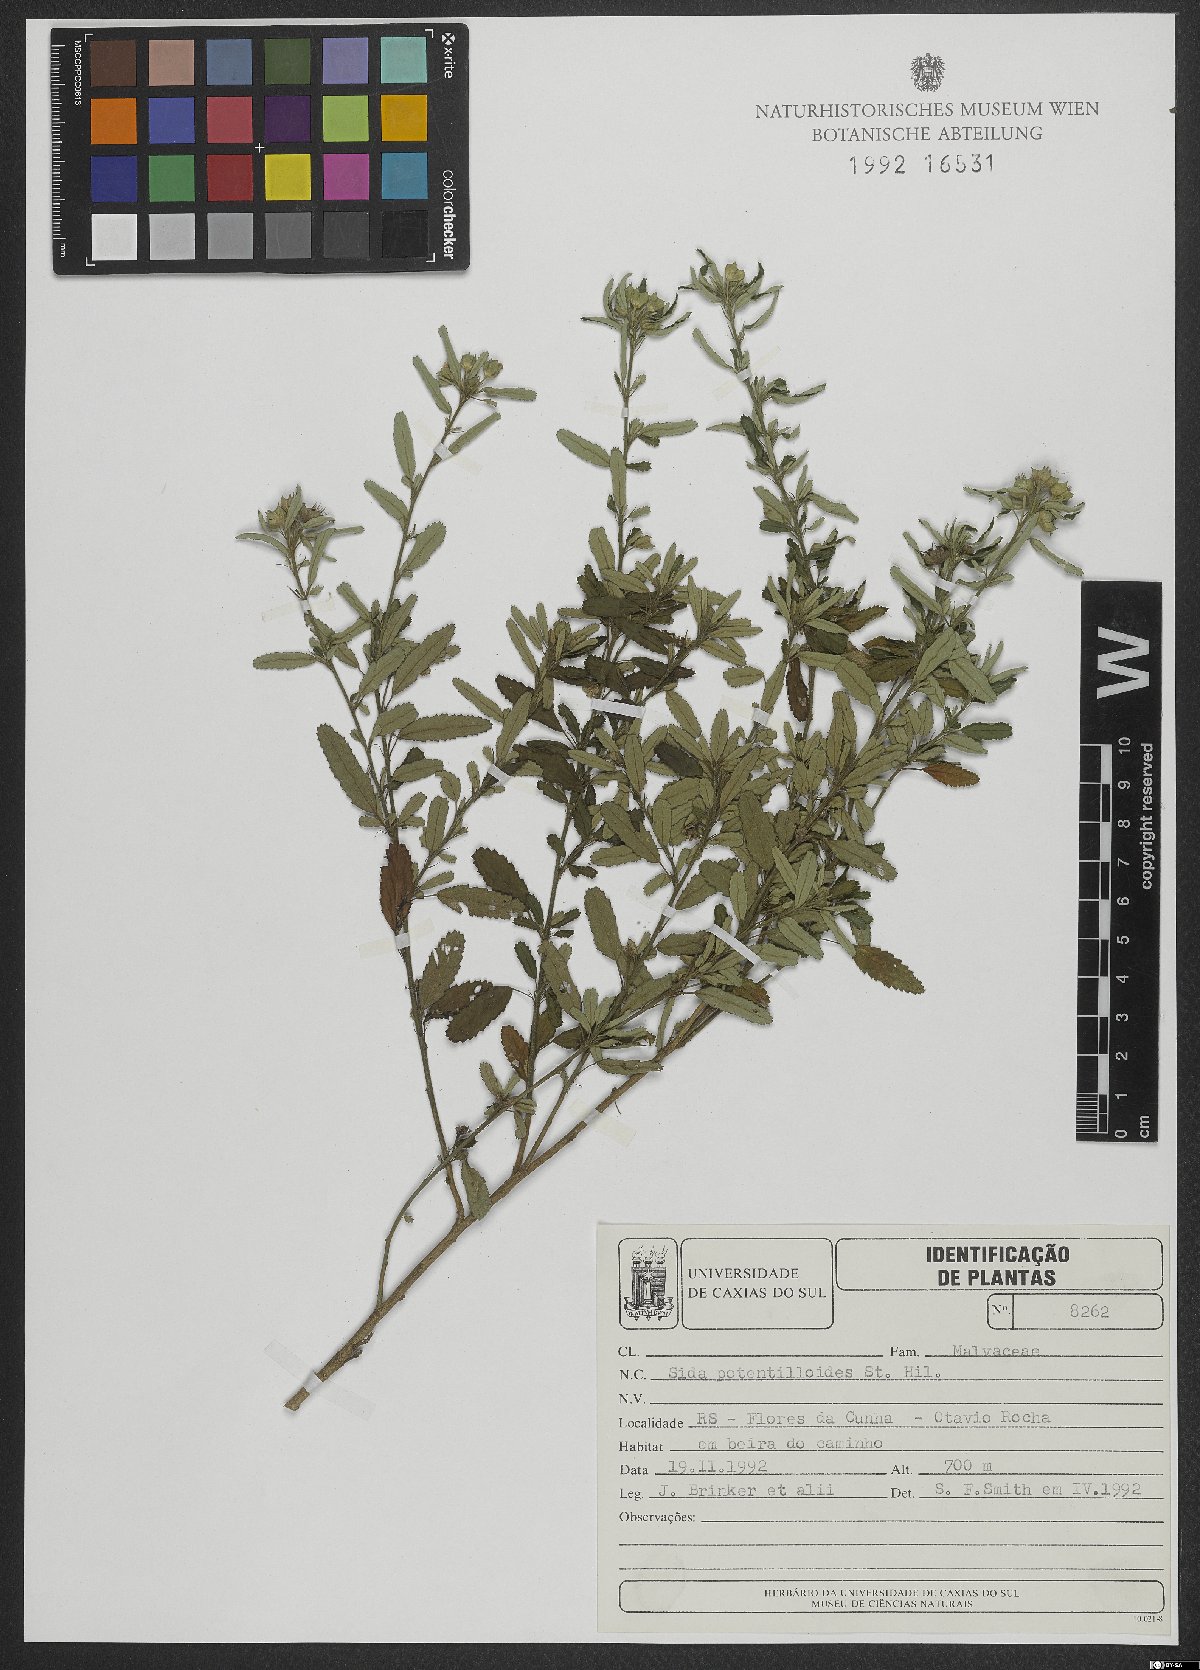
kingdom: Plantae
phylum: Tracheophyta
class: Magnoliopsida
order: Malvales
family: Malvaceae
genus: Sida
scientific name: Sida potentilloides
